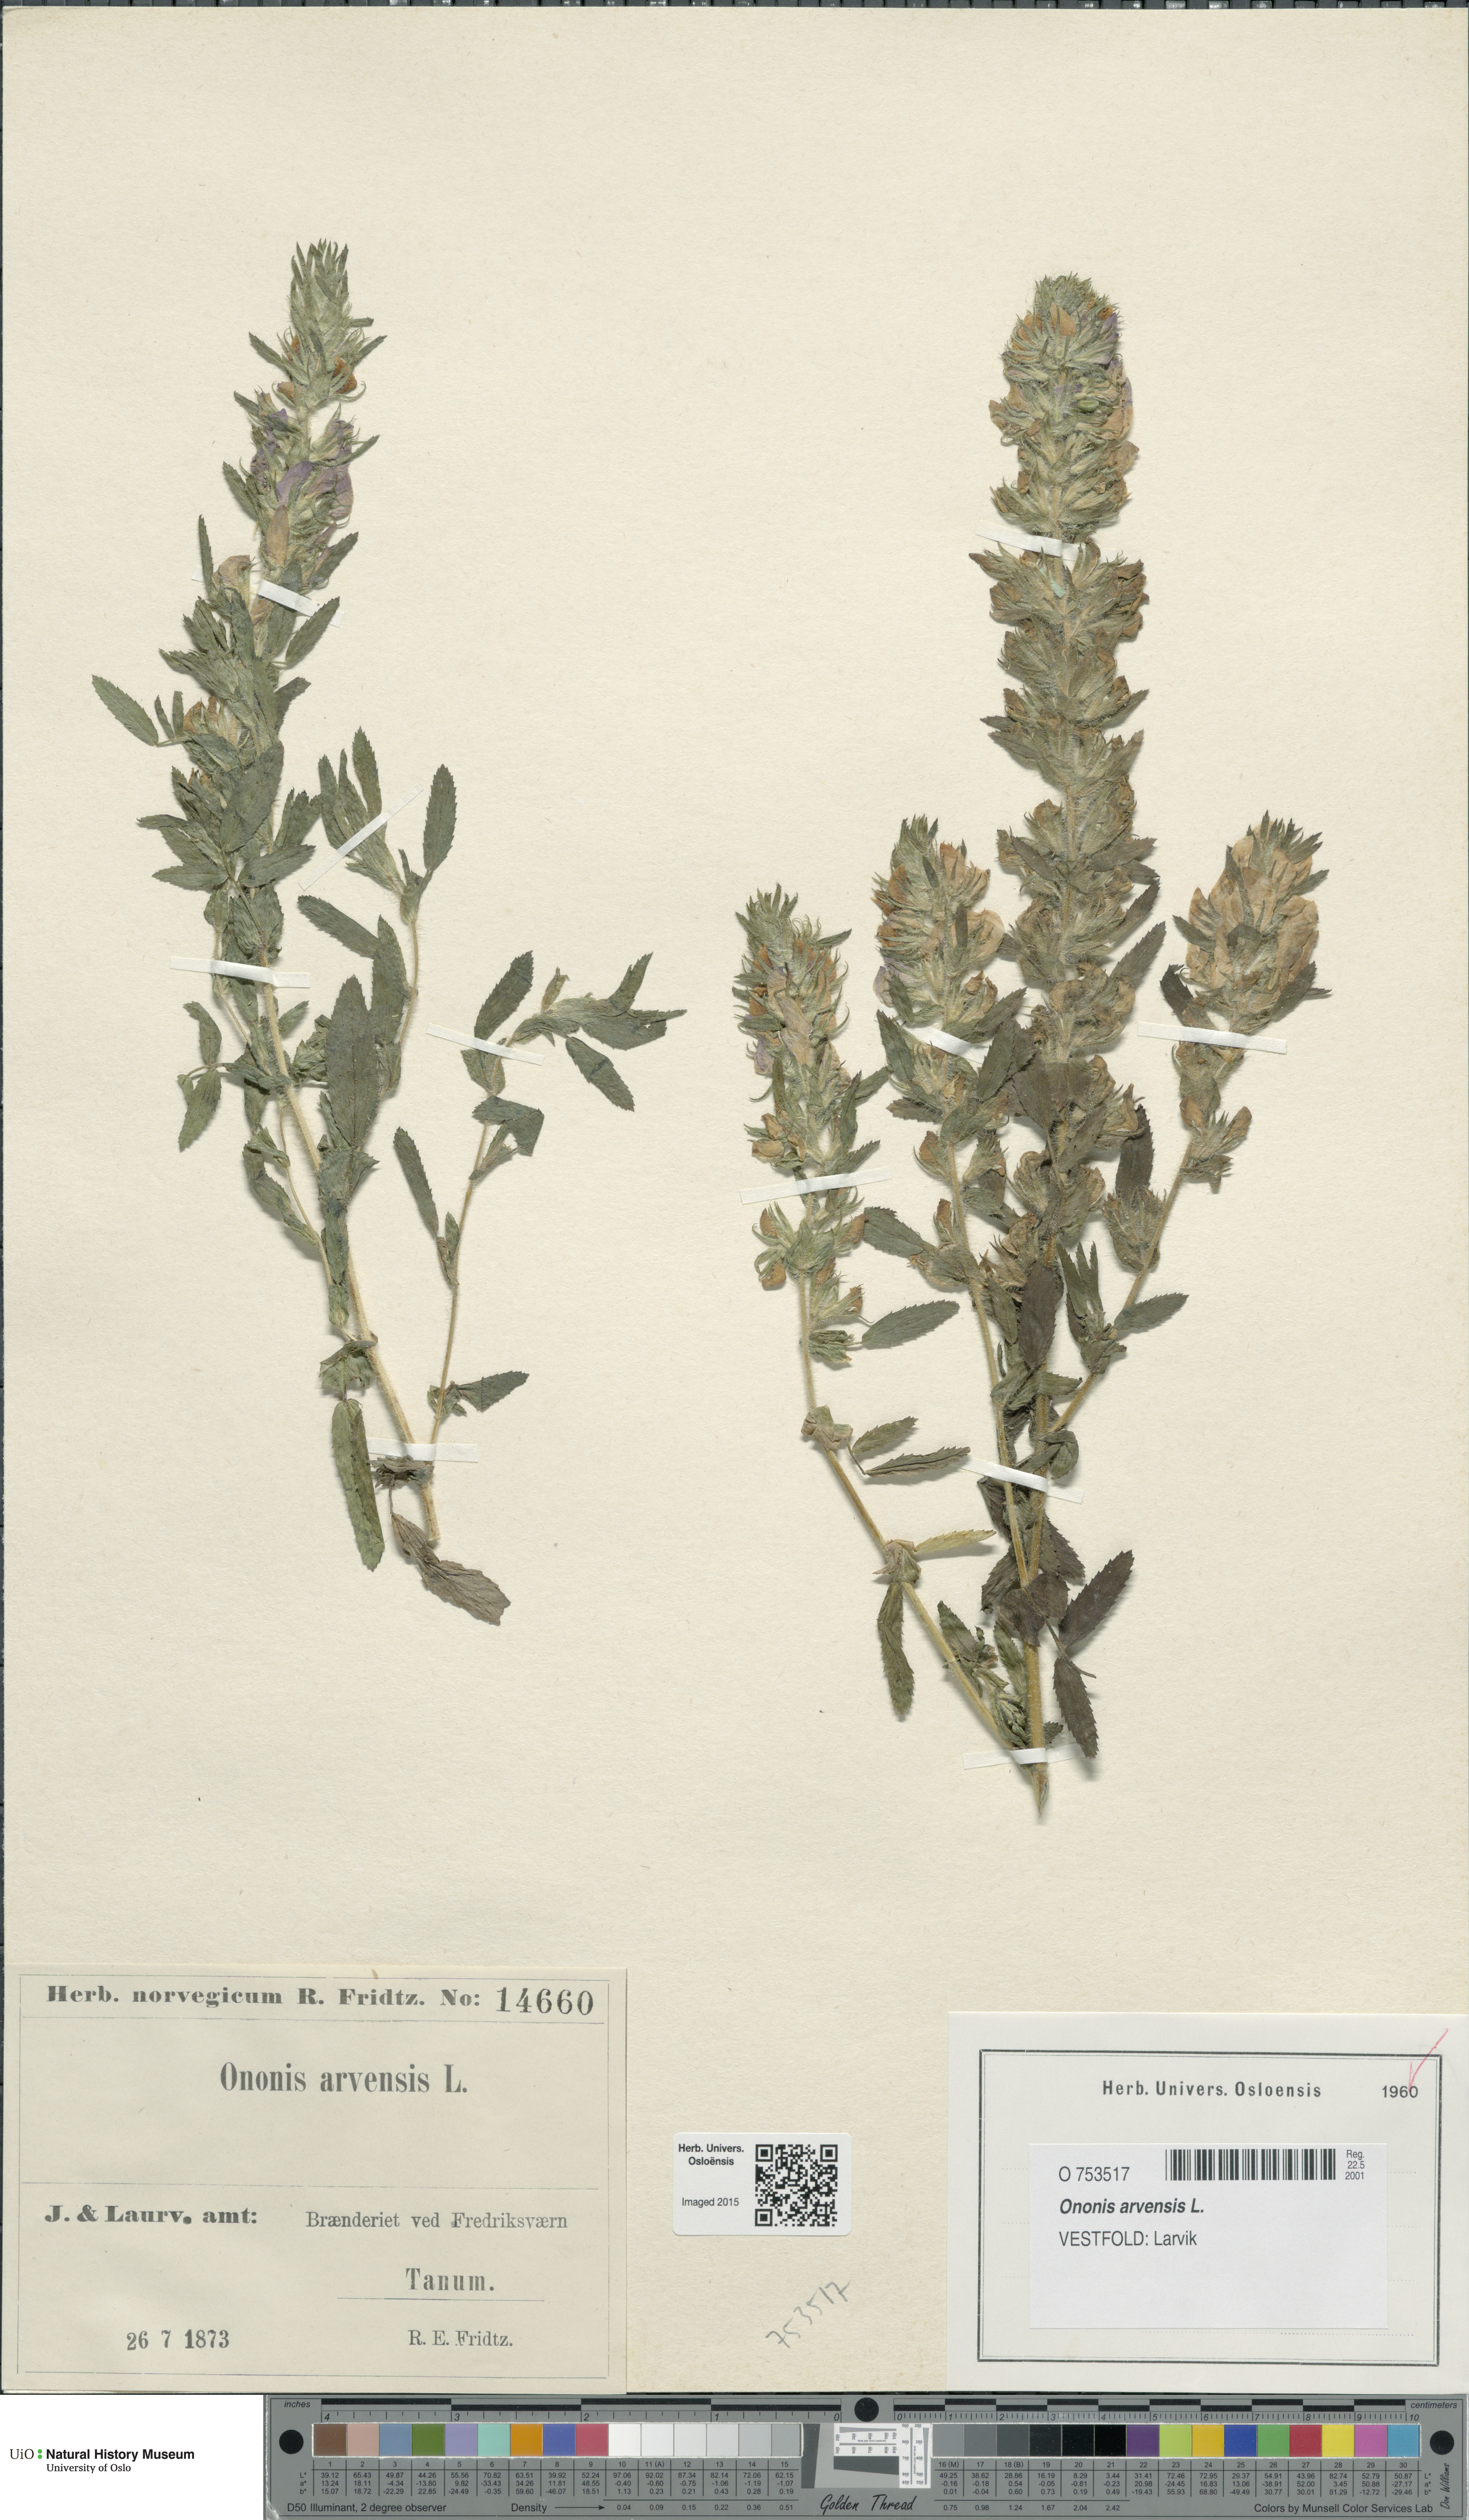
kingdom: Plantae
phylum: Tracheophyta
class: Magnoliopsida
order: Fabales
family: Fabaceae
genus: Ononis
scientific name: Ononis arvensis
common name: Field restharrow
